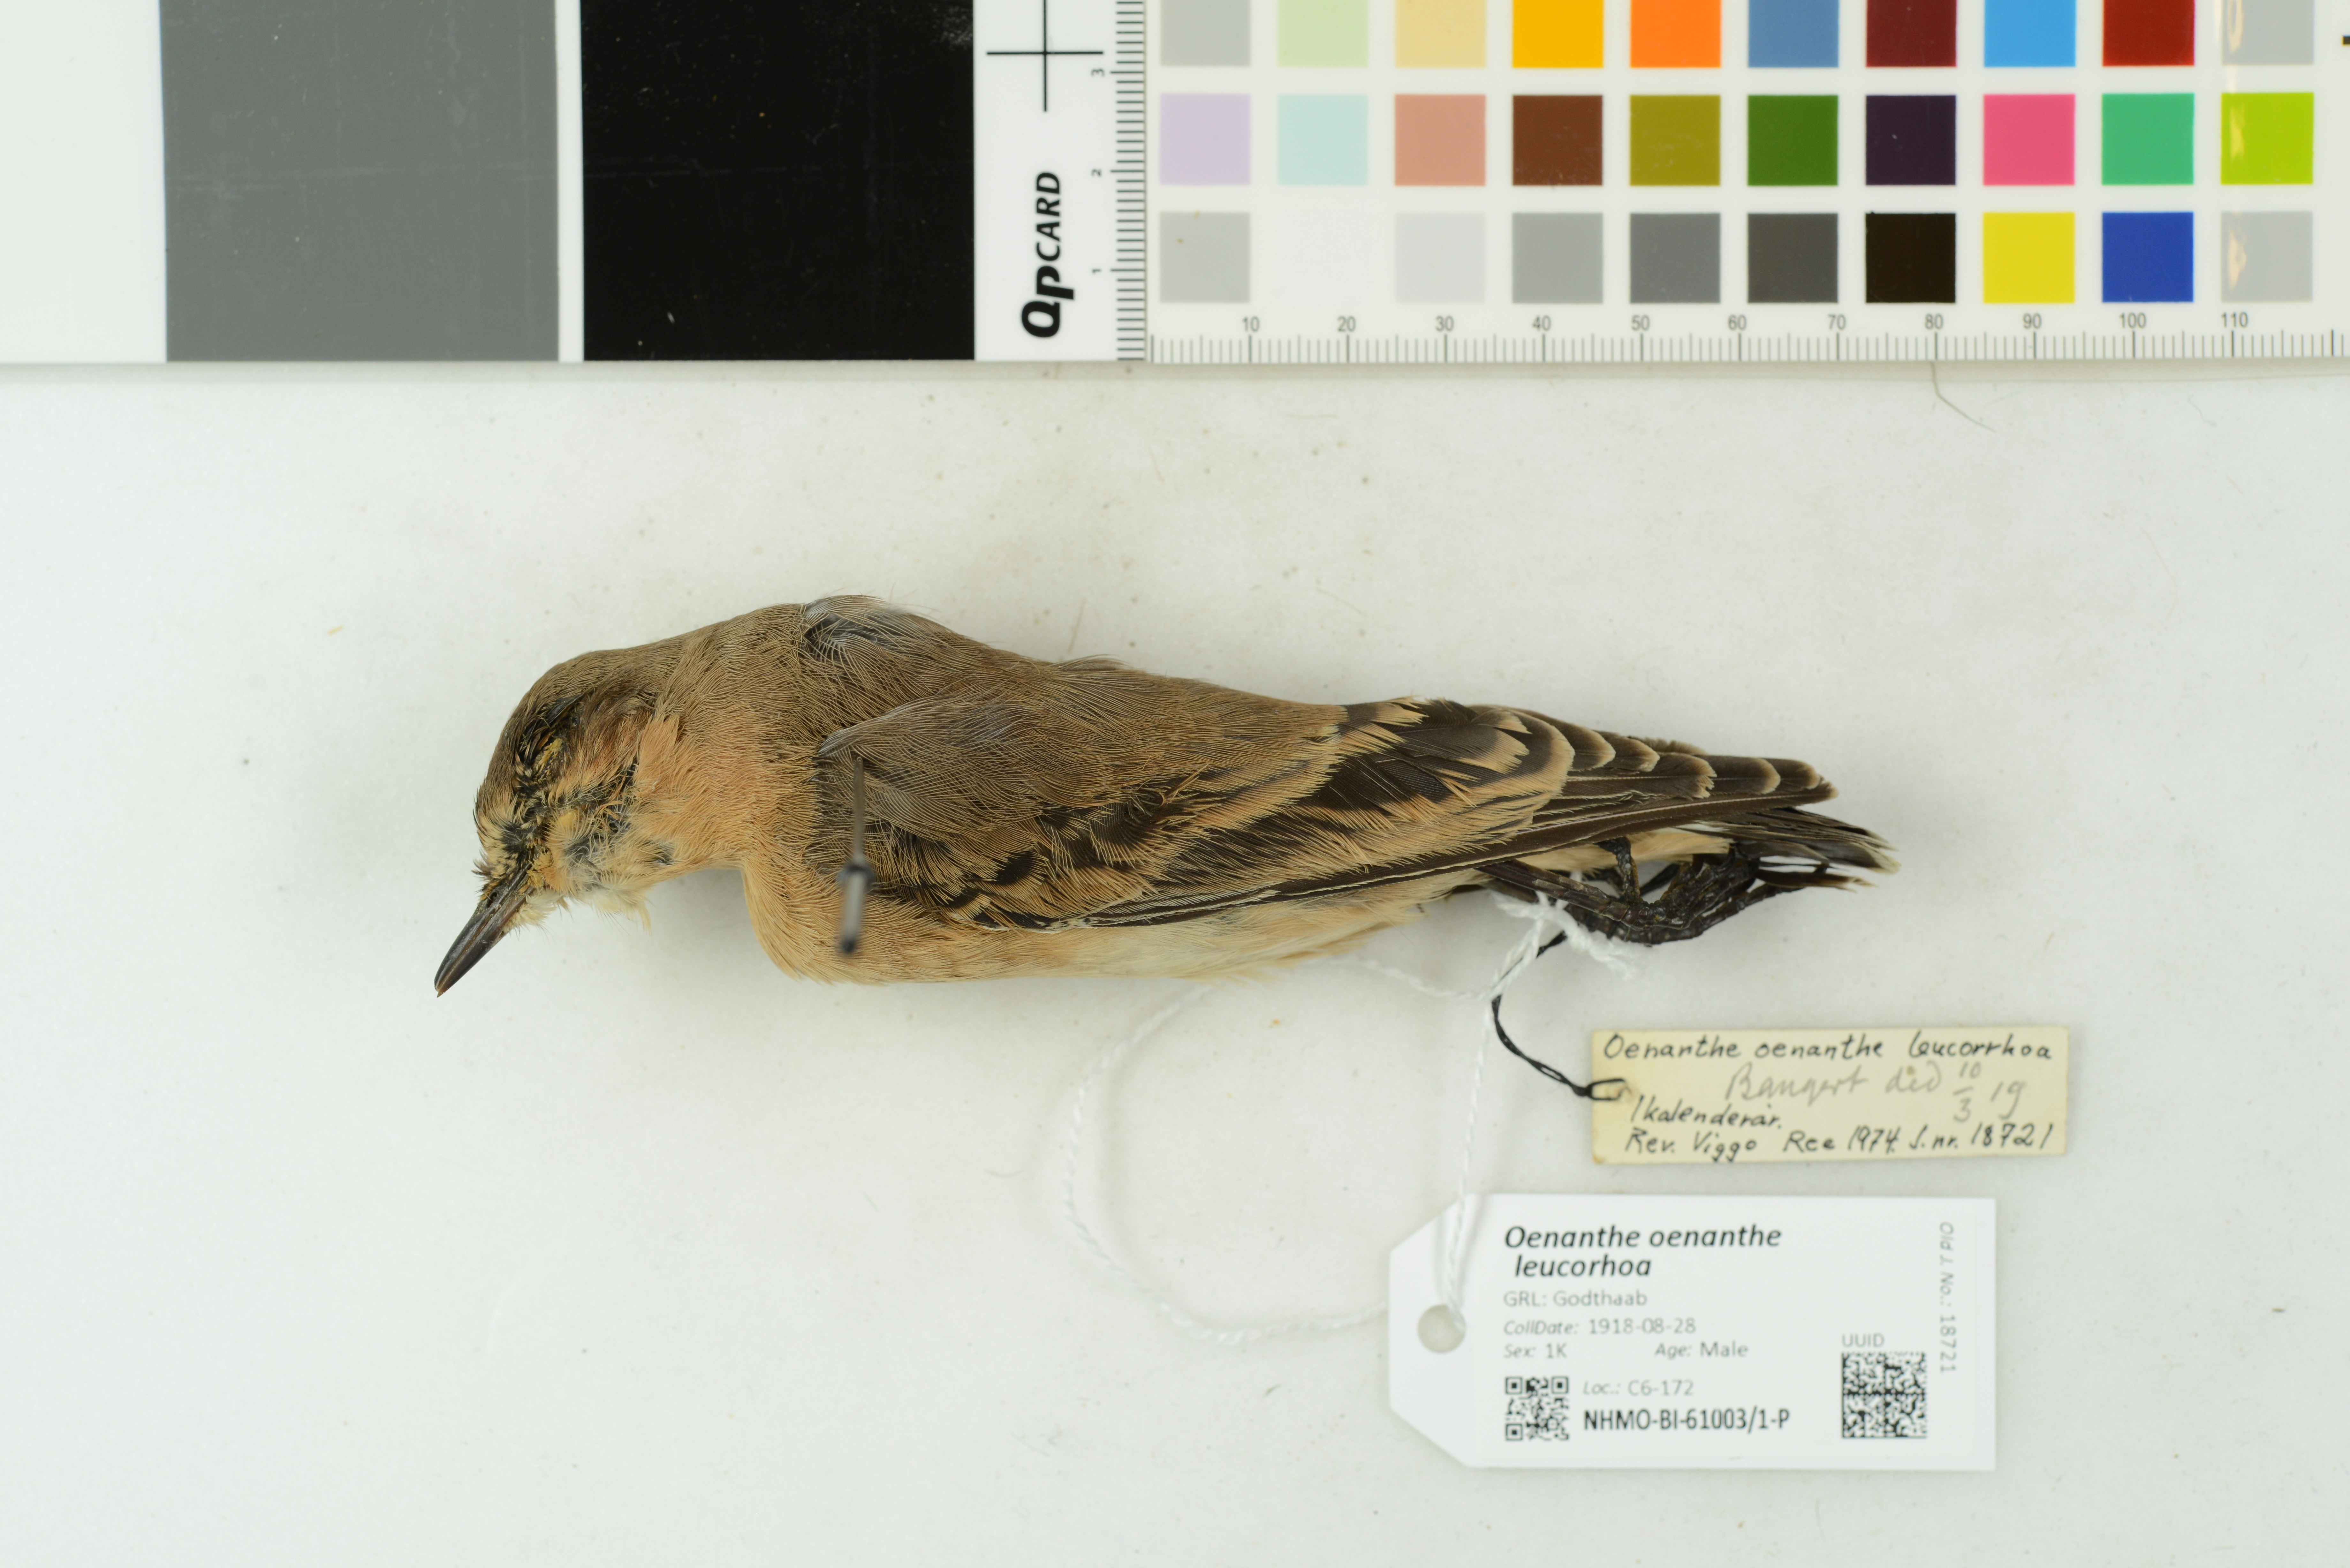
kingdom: Animalia
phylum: Chordata
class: Aves
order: Passeriformes
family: Muscicapidae
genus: Oenanthe
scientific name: Oenanthe oenanthe
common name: Northern wheatear
